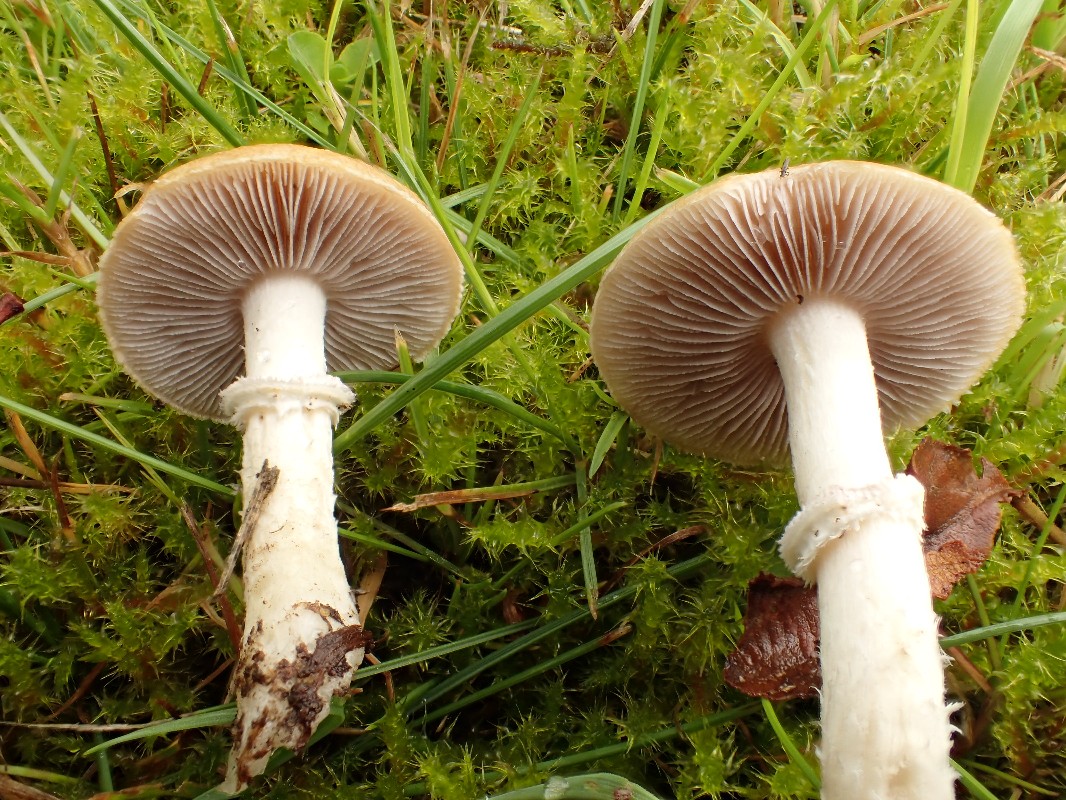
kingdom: Fungi
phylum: Basidiomycota
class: Agaricomycetes
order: Agaricales
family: Hymenogastraceae
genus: Psilocybe
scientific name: Psilocybe coronilla
